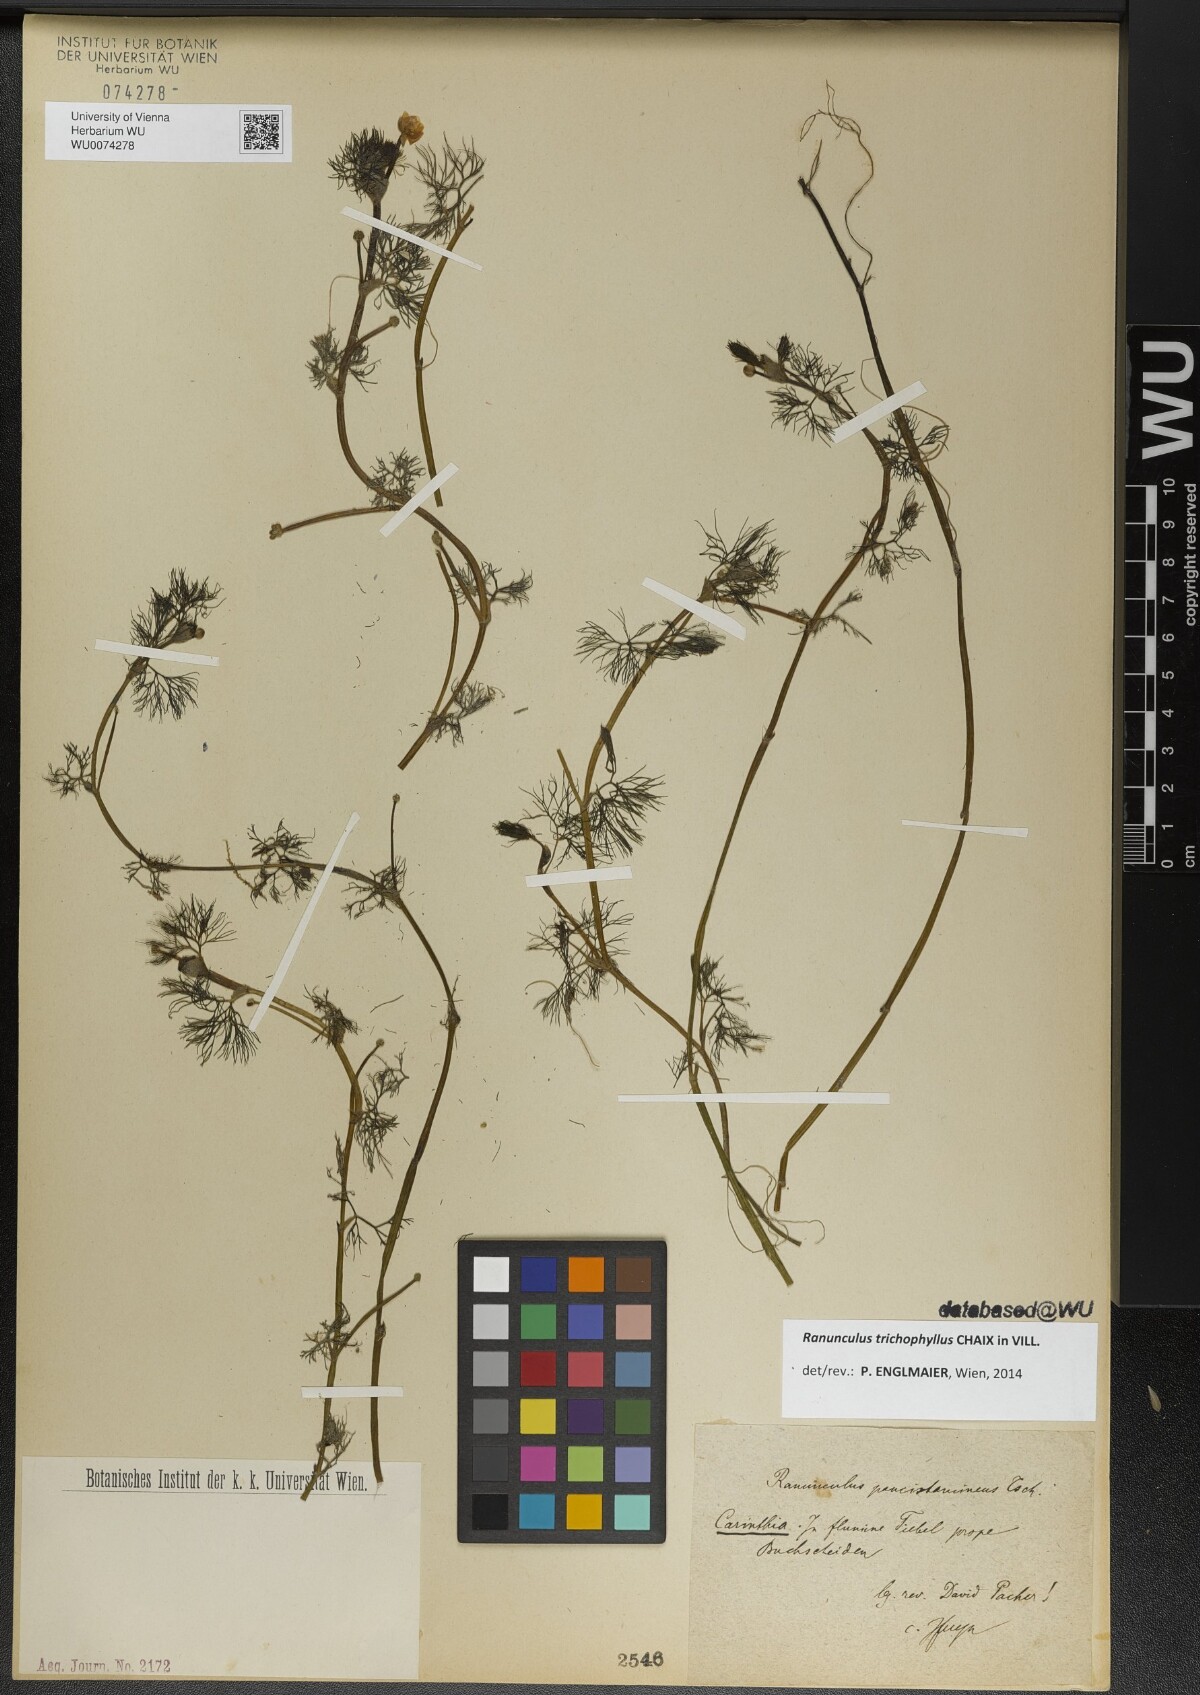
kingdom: Plantae
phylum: Tracheophyta
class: Magnoliopsida
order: Ranunculales
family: Ranunculaceae
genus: Ranunculus
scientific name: Ranunculus trichophyllus
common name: Thread-leaved water-crowfoot
